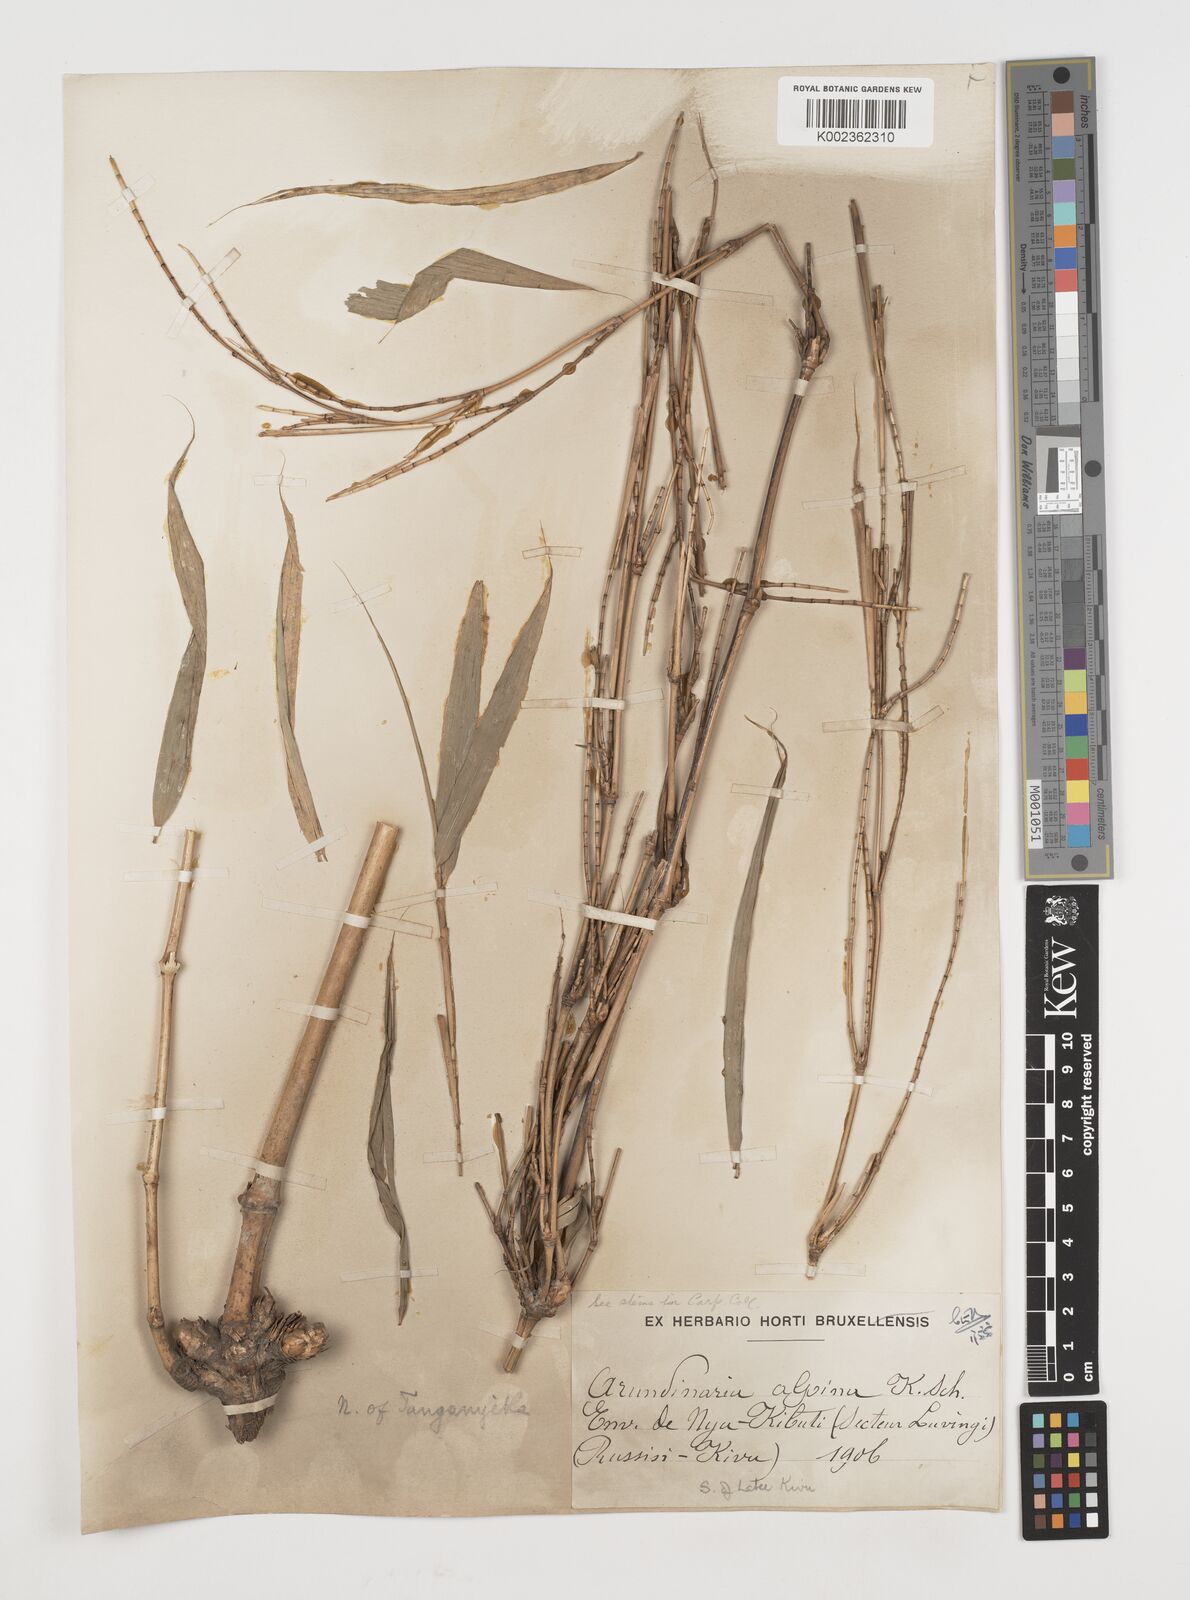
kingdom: Plantae
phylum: Tracheophyta
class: Liliopsida
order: Poales
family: Poaceae
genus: Oldeania
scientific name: Oldeania alpina
